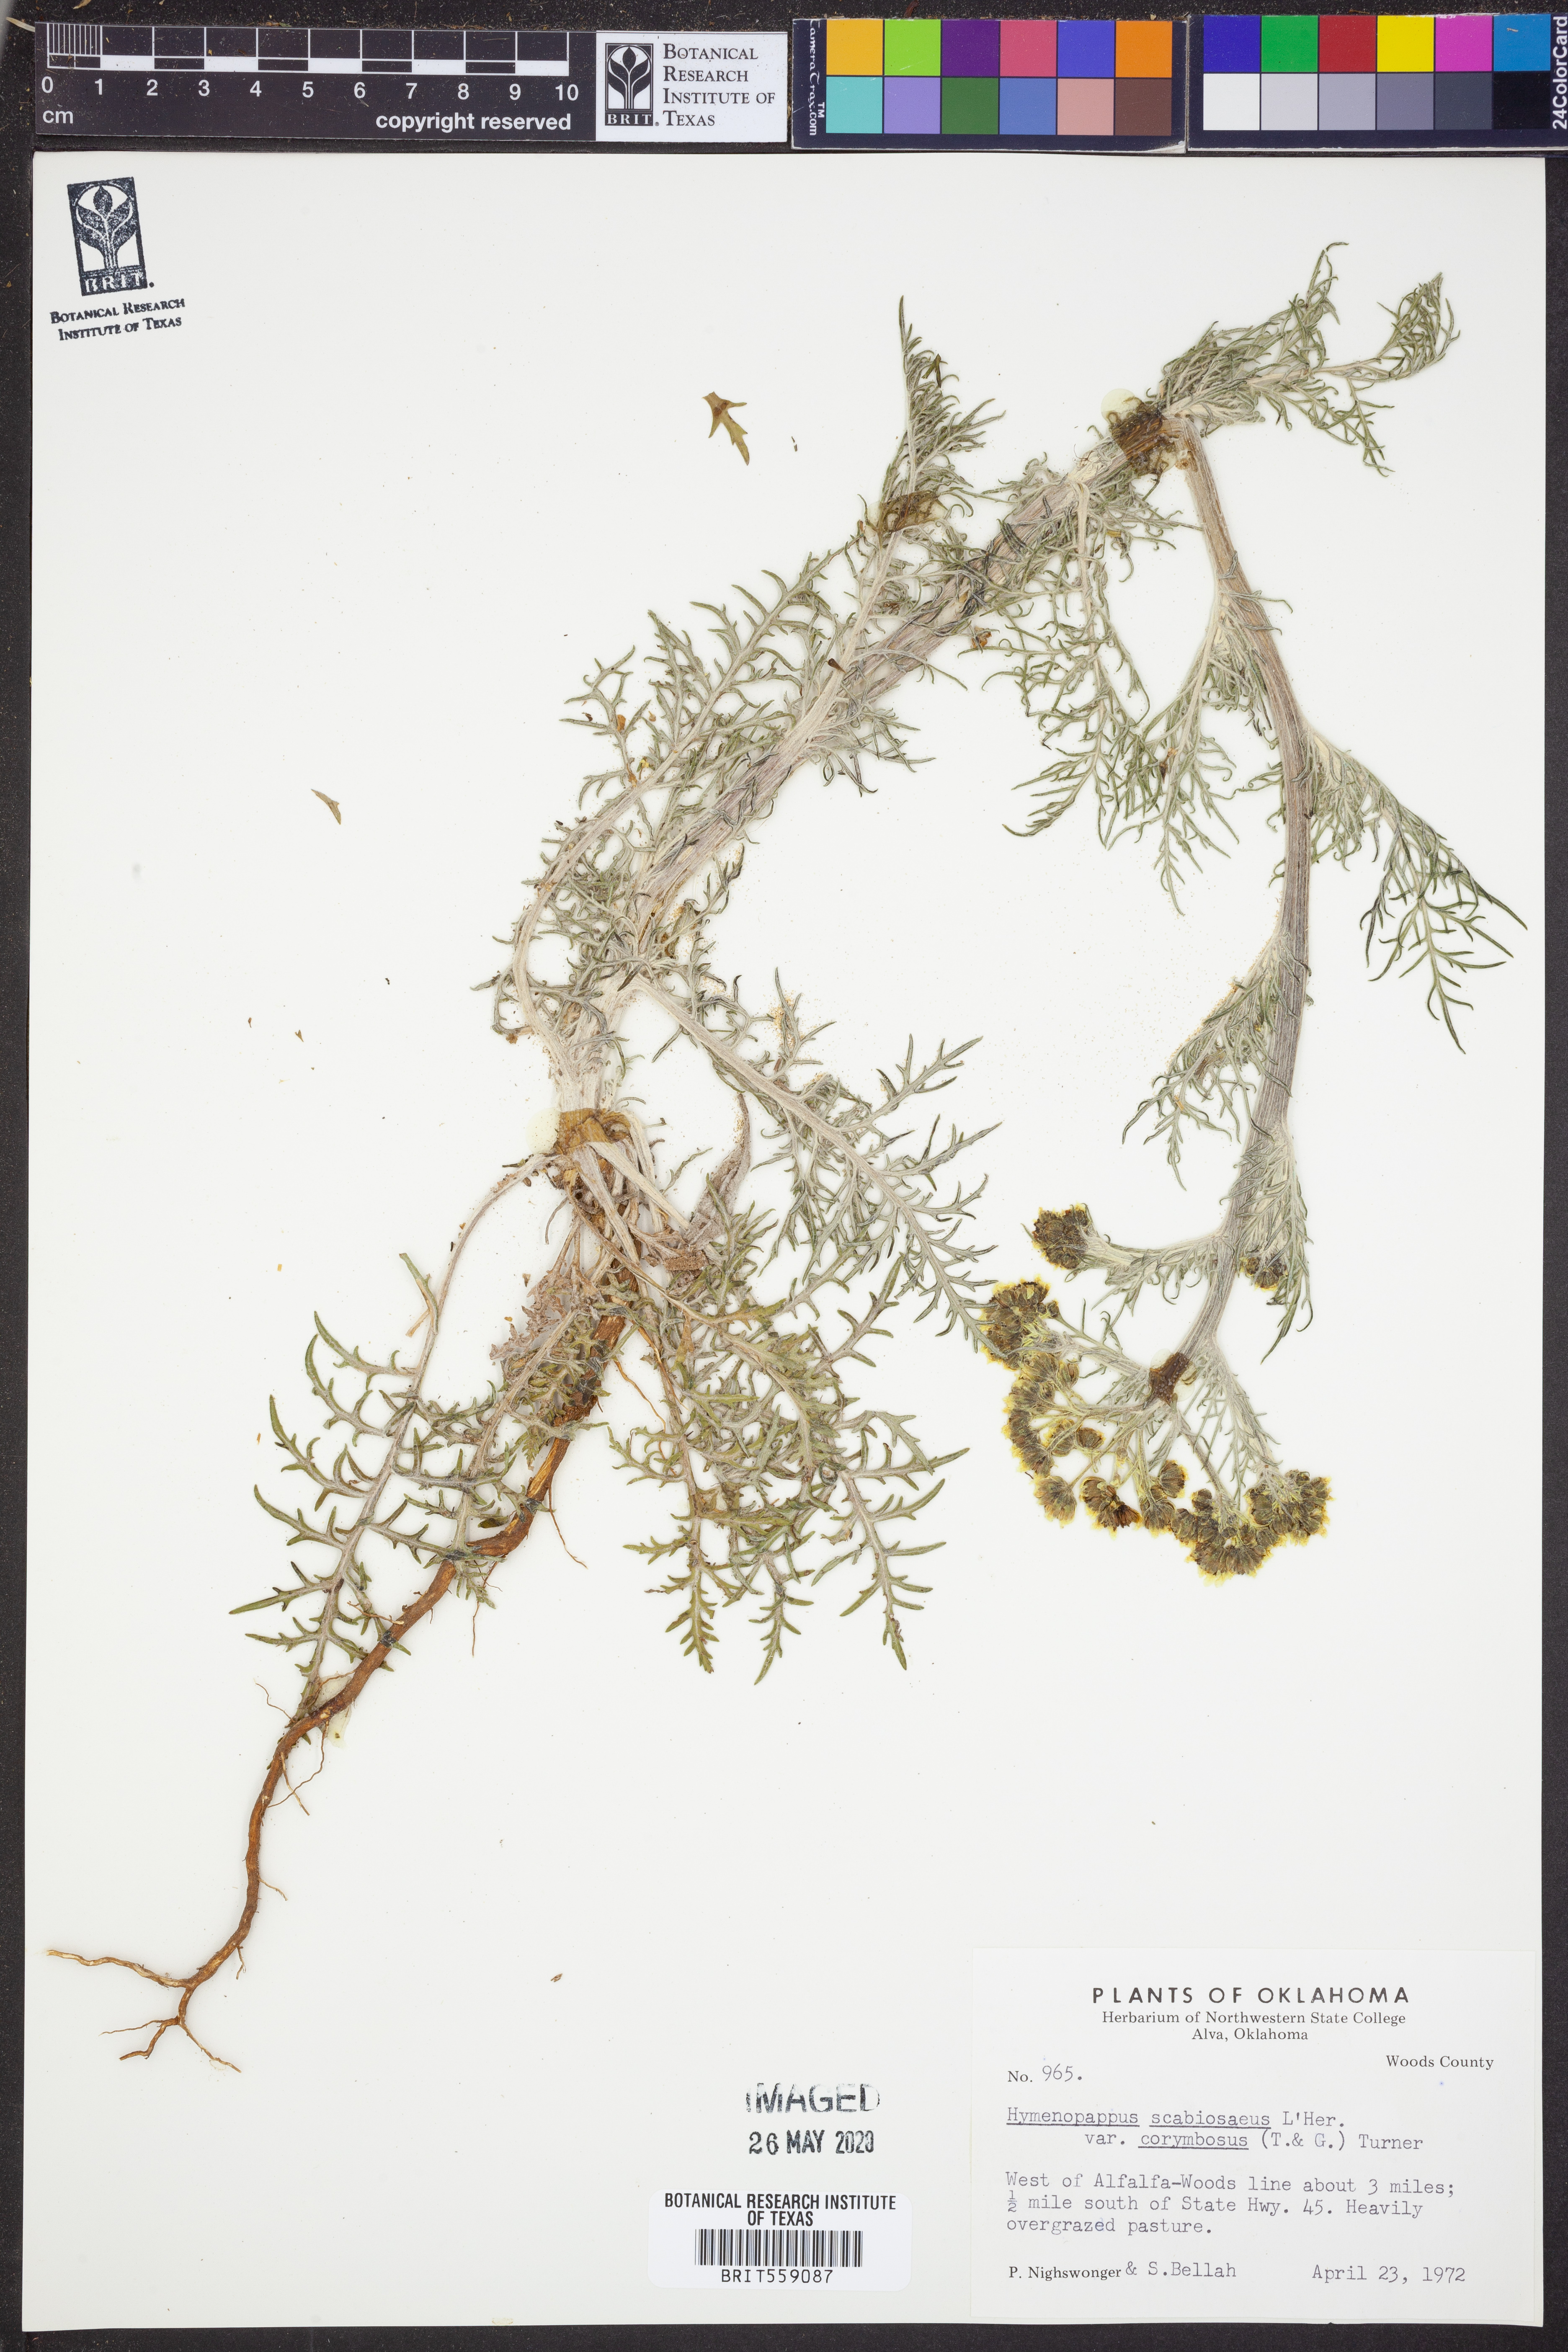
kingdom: Plantae
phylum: Tracheophyta
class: Magnoliopsida
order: Asterales
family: Asteraceae
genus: Hymenopappus
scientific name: Hymenopappus scabiosaeus
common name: Carolina woollywhite
